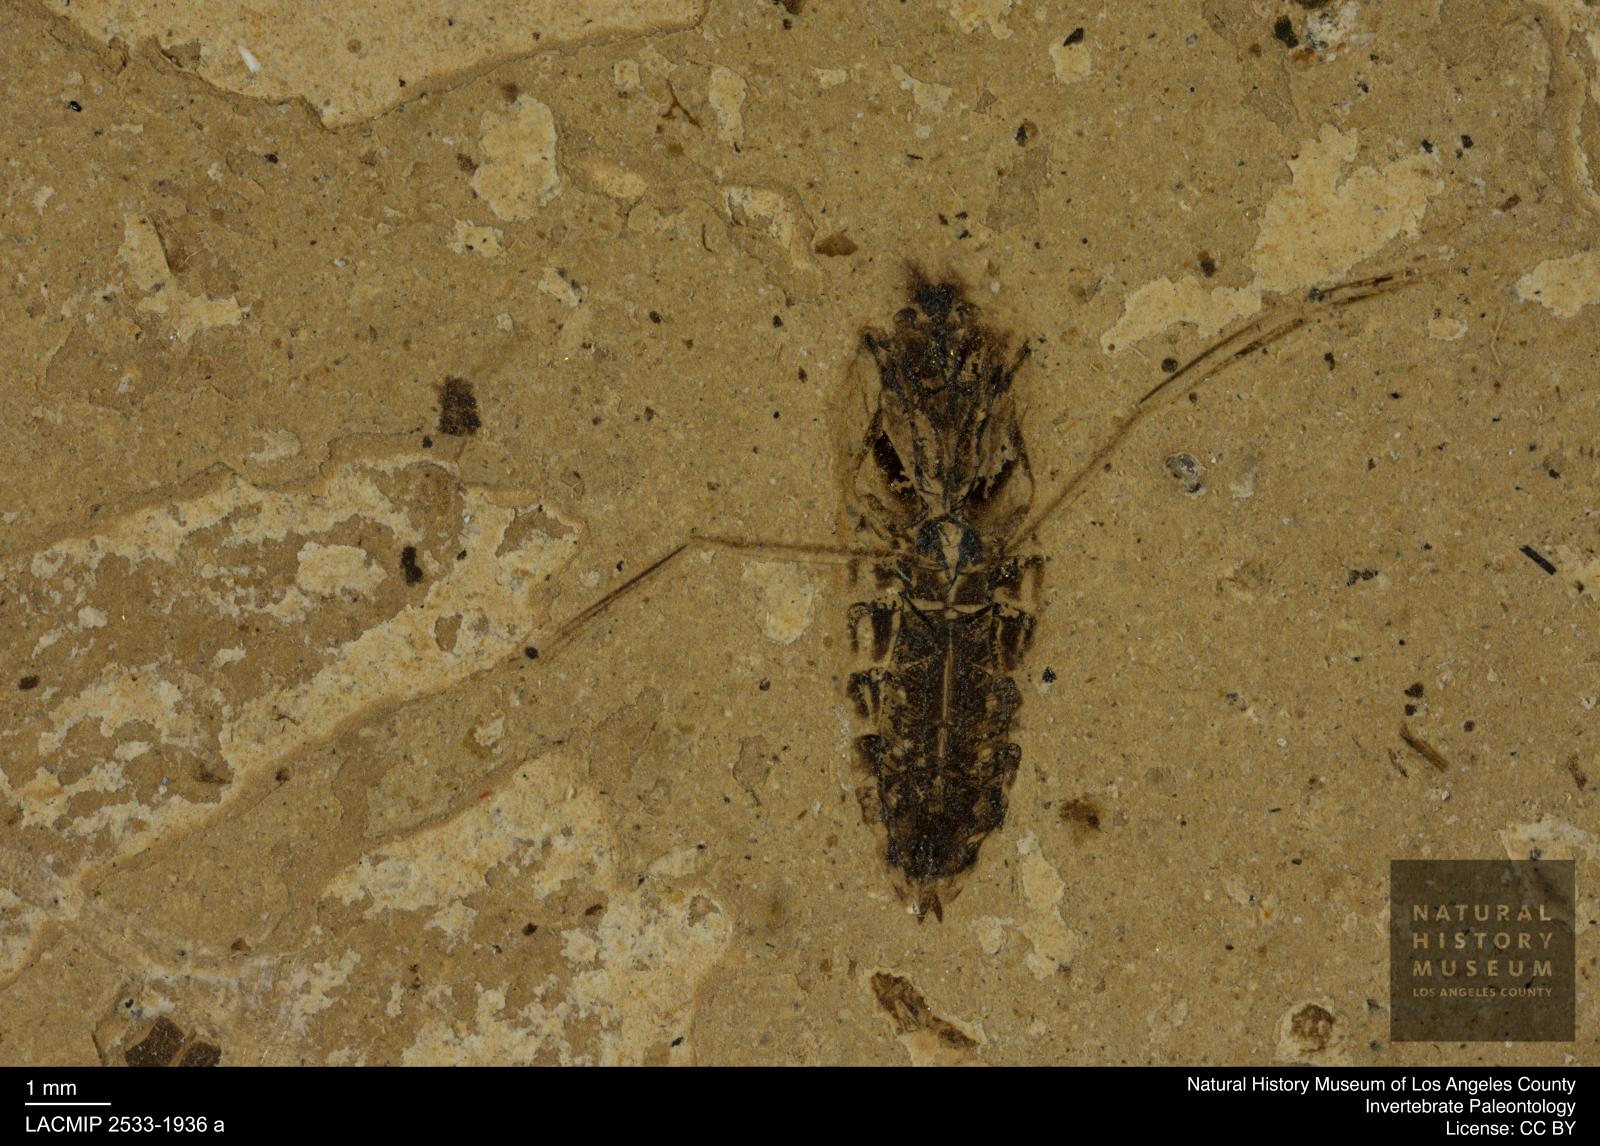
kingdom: Animalia
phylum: Arthropoda
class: Insecta
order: Hemiptera
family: Notonectidae
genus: Anisops
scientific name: Anisops Notonecta deichmuelleri
